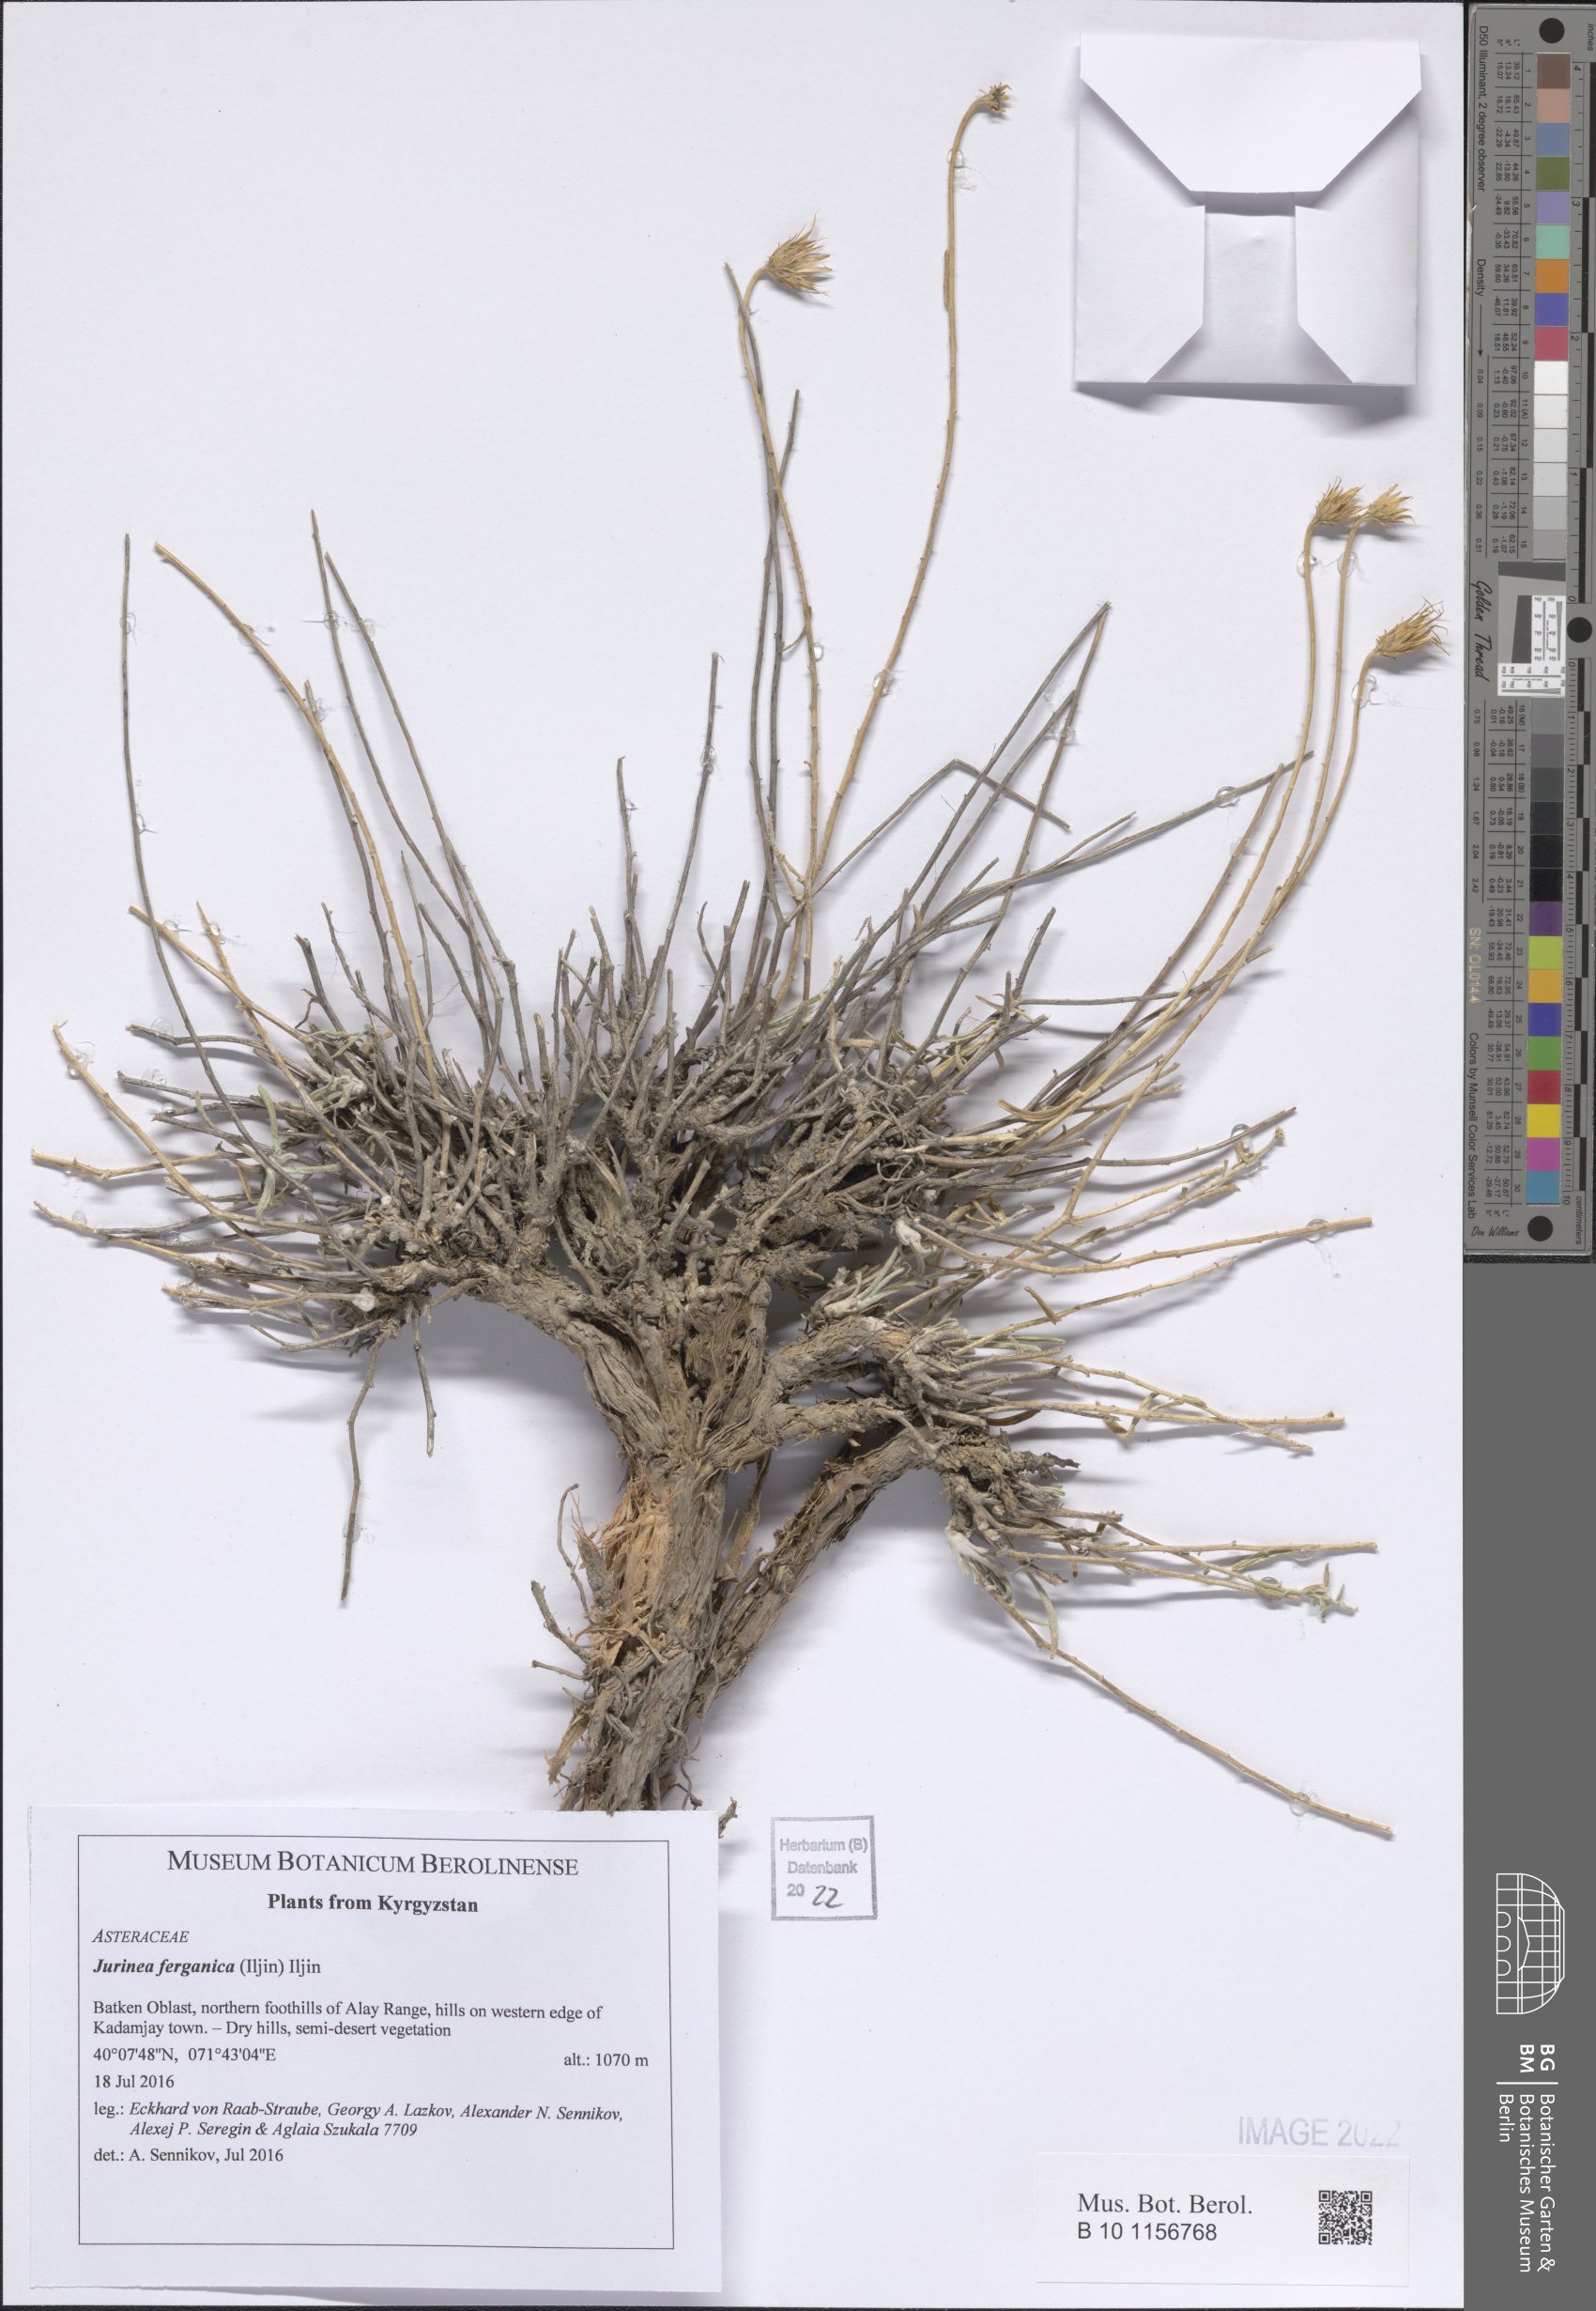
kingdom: Plantae
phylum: Tracheophyta
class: Magnoliopsida
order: Asterales
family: Asteraceae
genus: Jurinea
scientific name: Jurinea ferganica
